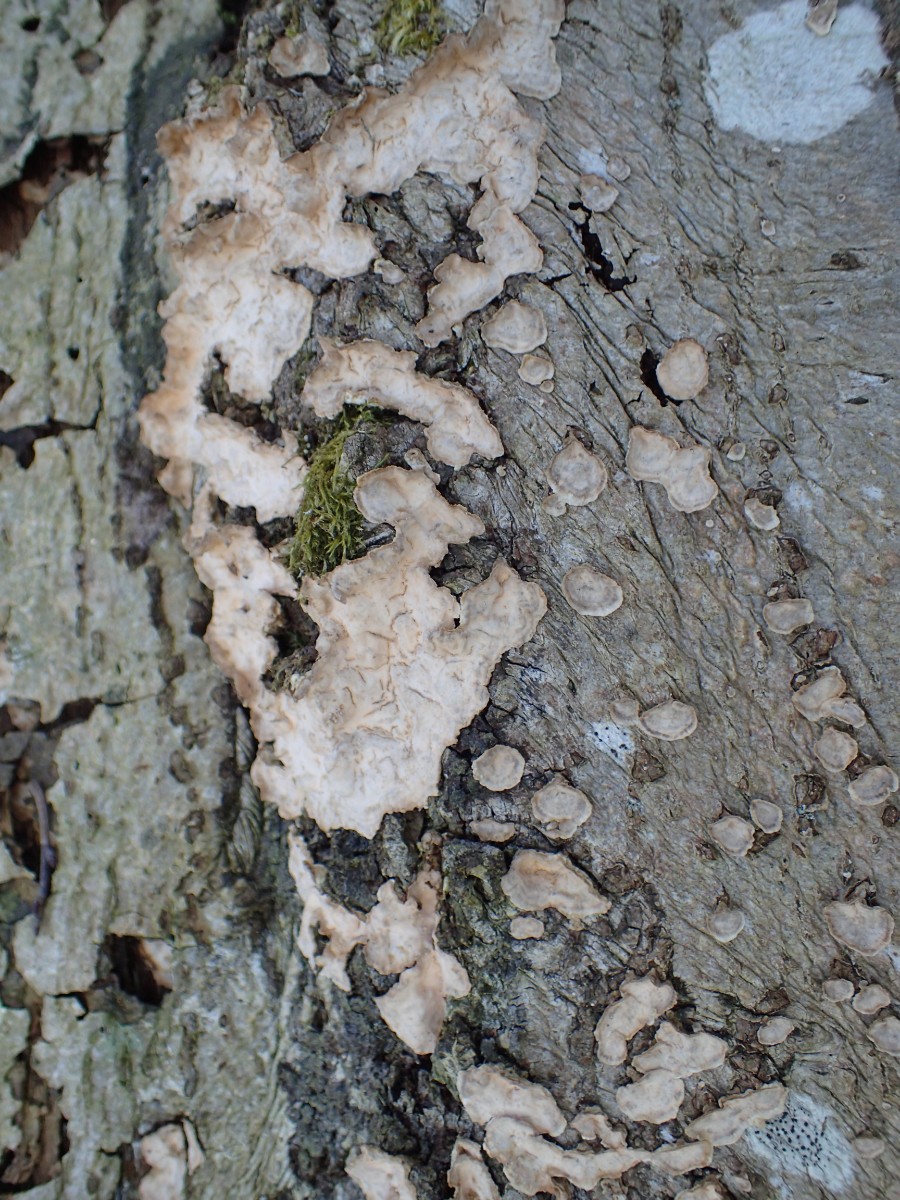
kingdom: Fungi
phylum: Basidiomycota
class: Agaricomycetes
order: Russulales
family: Stereaceae
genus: Stereum
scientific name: Stereum rugosum
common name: rynket lædersvamp
